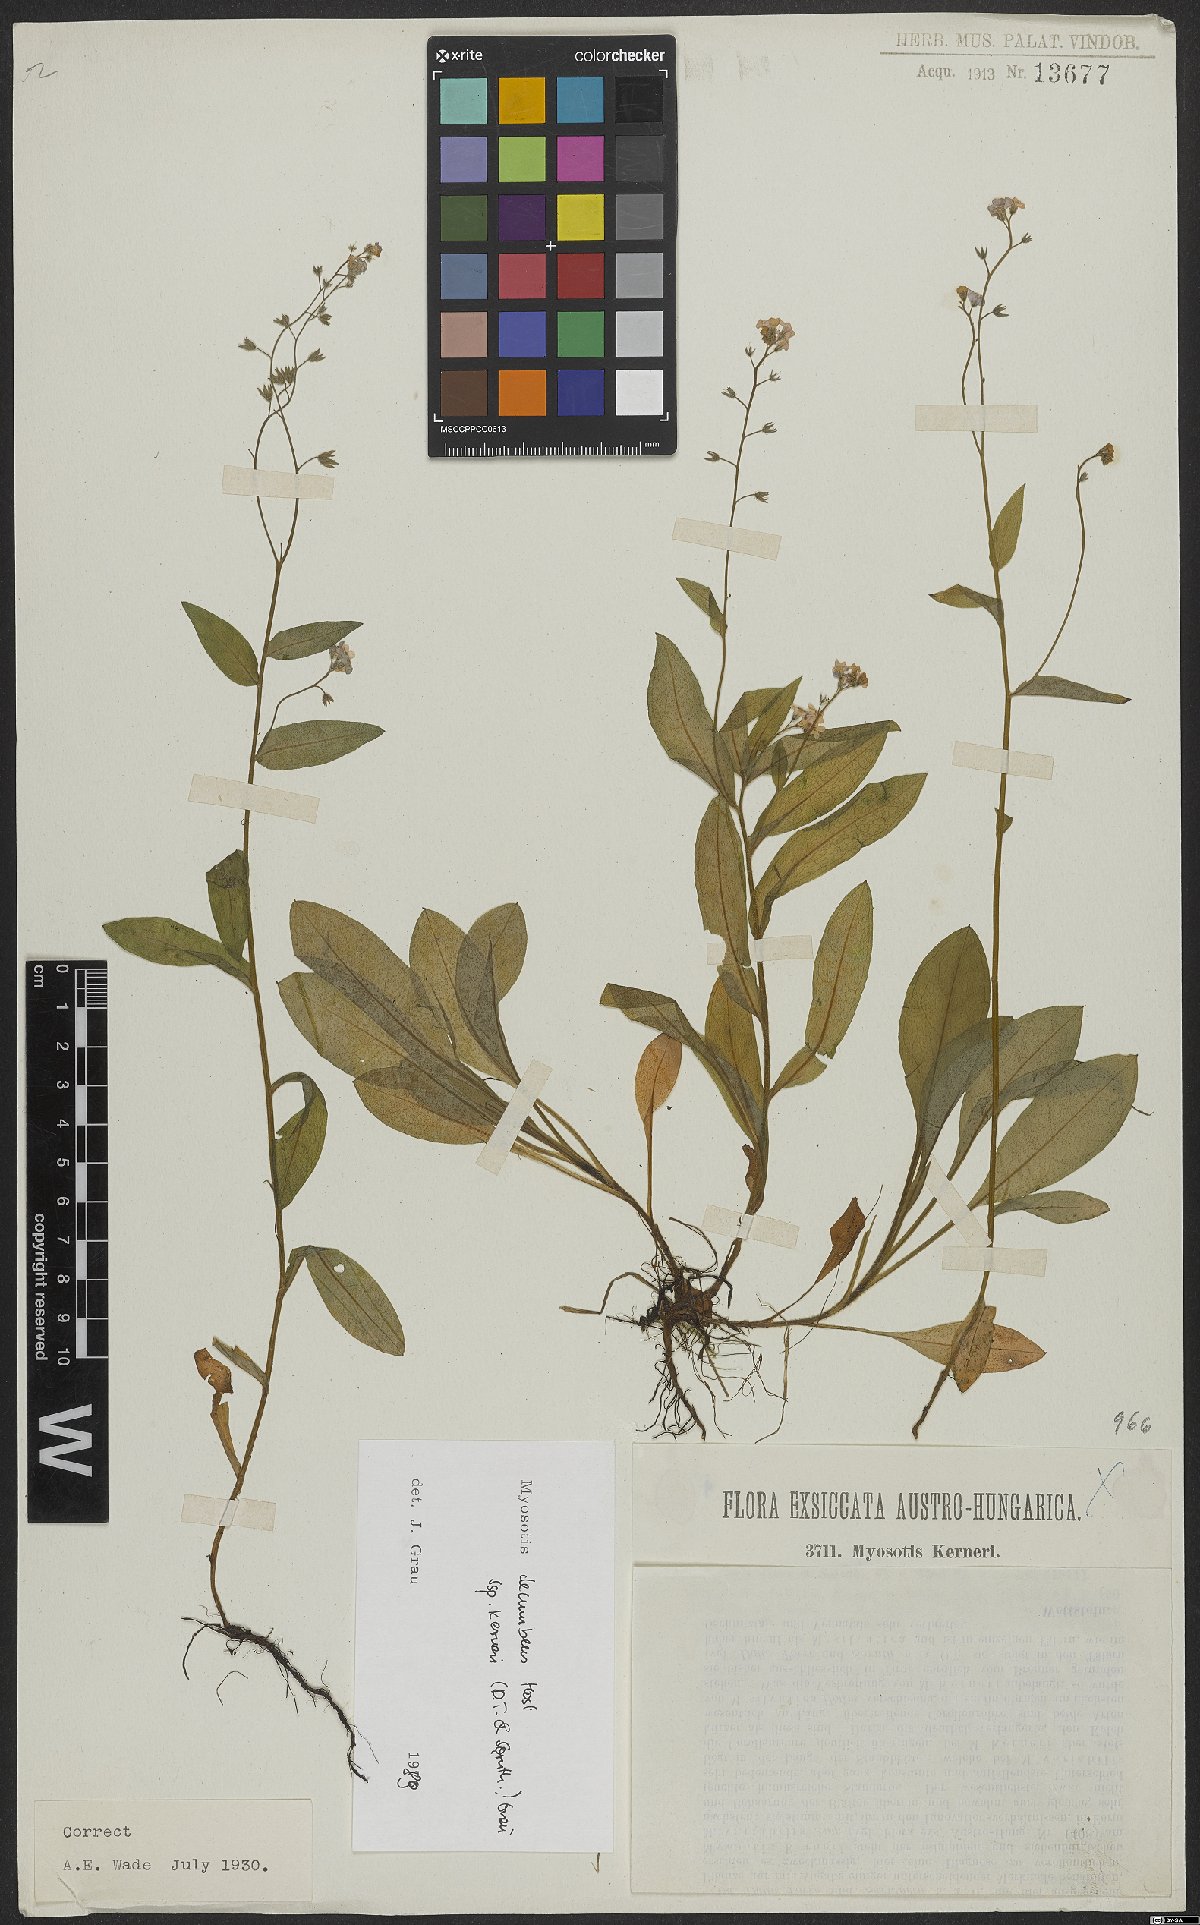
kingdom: Plantae
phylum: Tracheophyta
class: Magnoliopsida
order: Boraginales
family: Boraginaceae
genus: Myosotis
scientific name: Myosotis decumbens
